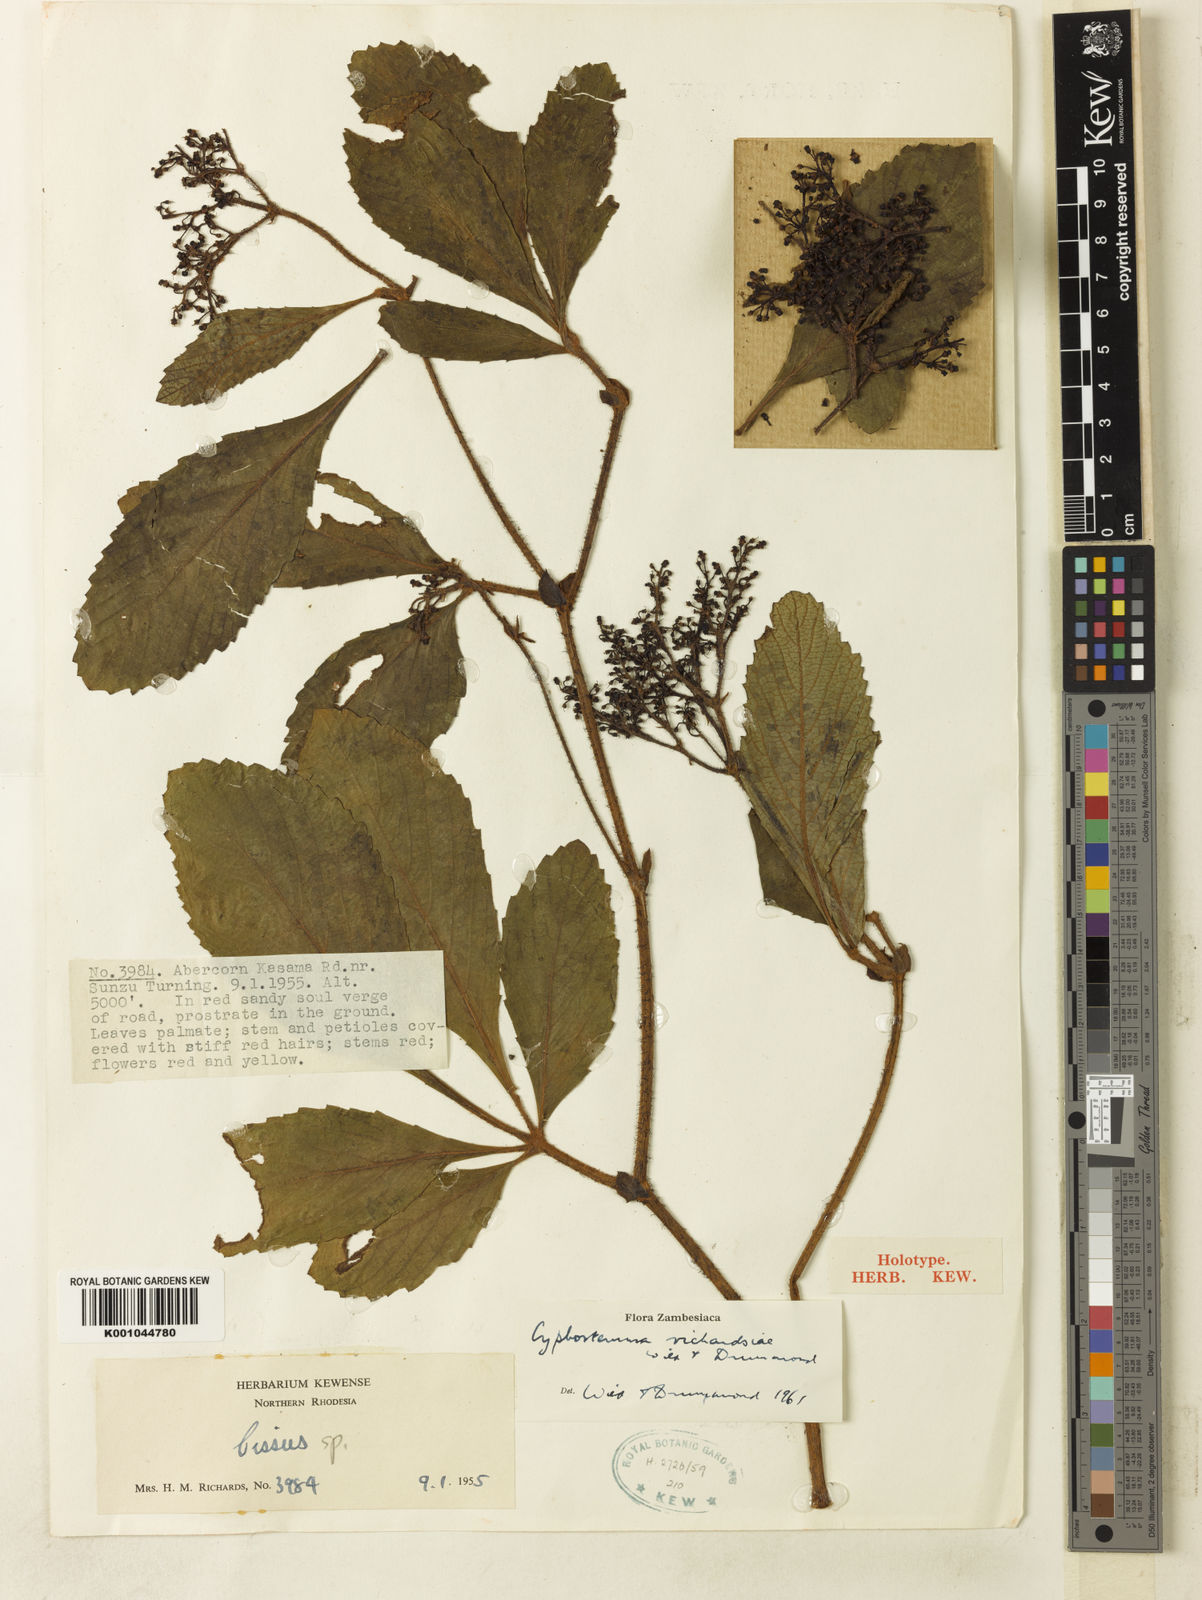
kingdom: Plantae
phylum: Tracheophyta
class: Magnoliopsida
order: Vitales
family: Vitaceae
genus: Cyphostemma
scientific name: Cyphostemma richardsiae
